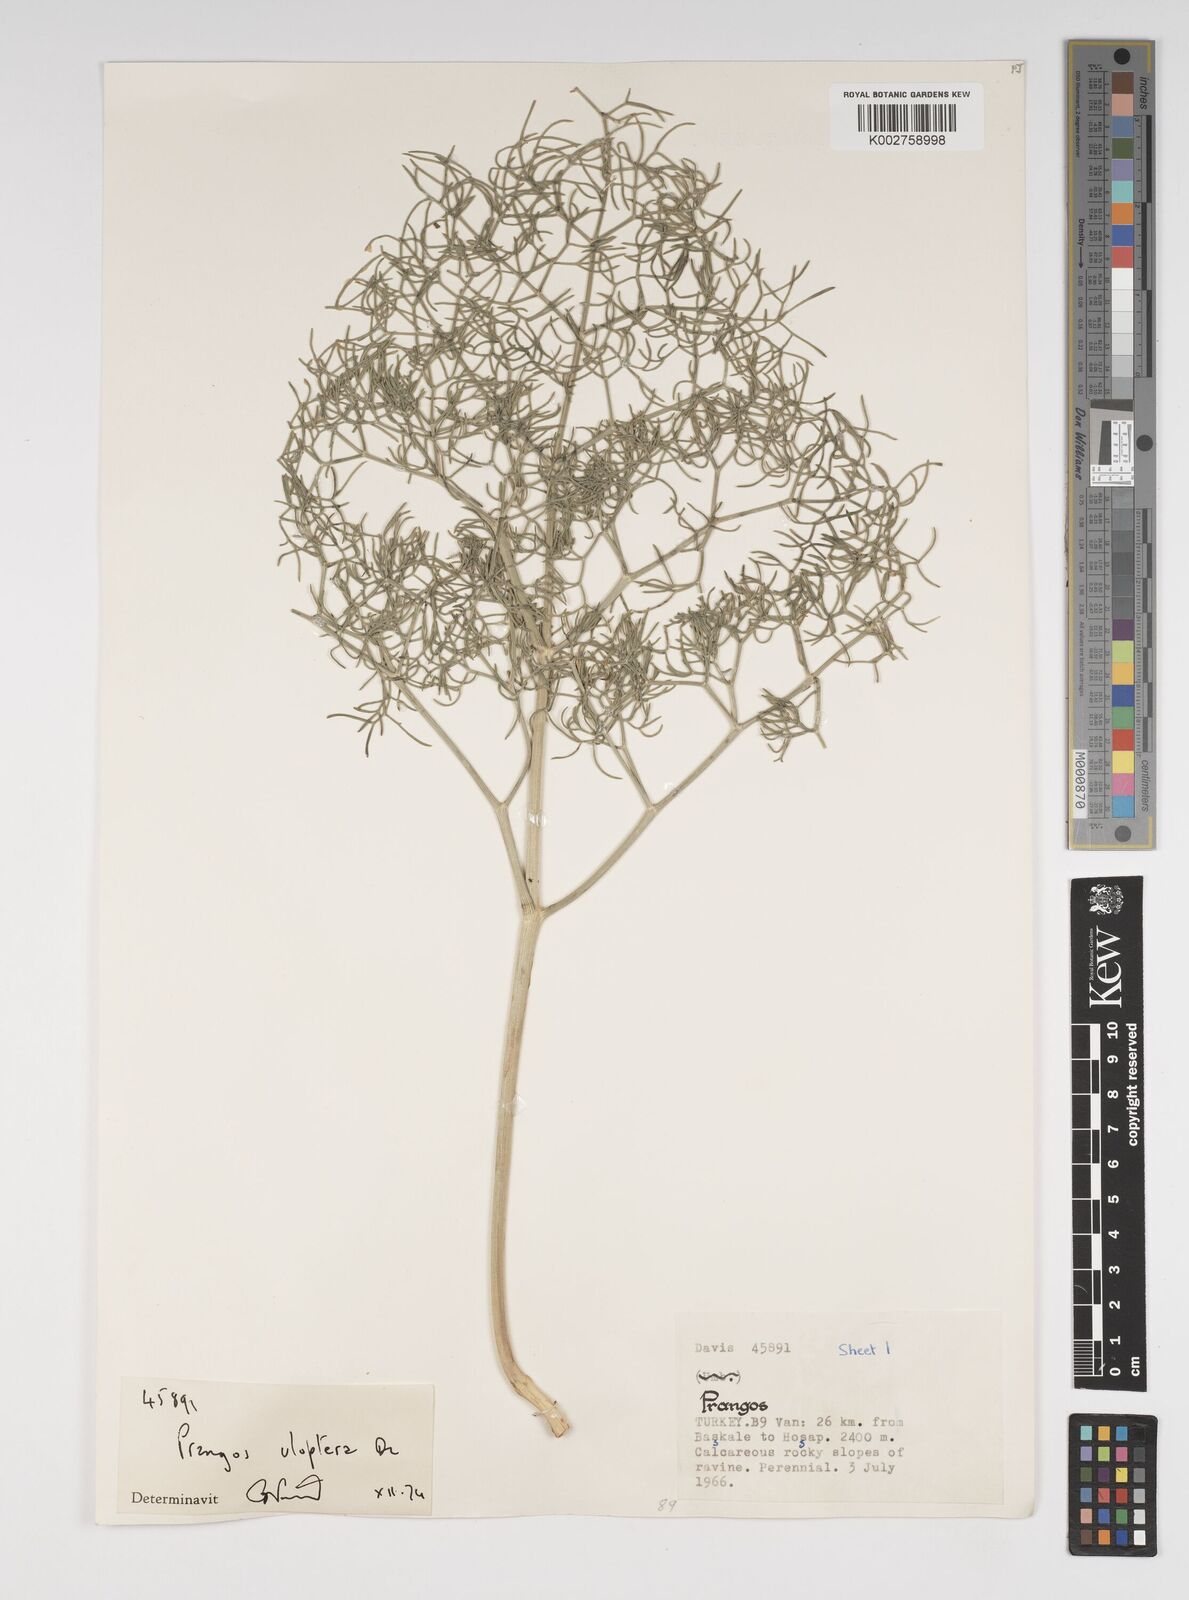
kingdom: Plantae
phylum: Tracheophyta
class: Magnoliopsida
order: Apiales
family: Apiaceae
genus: Prangos
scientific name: Prangos uloptera
